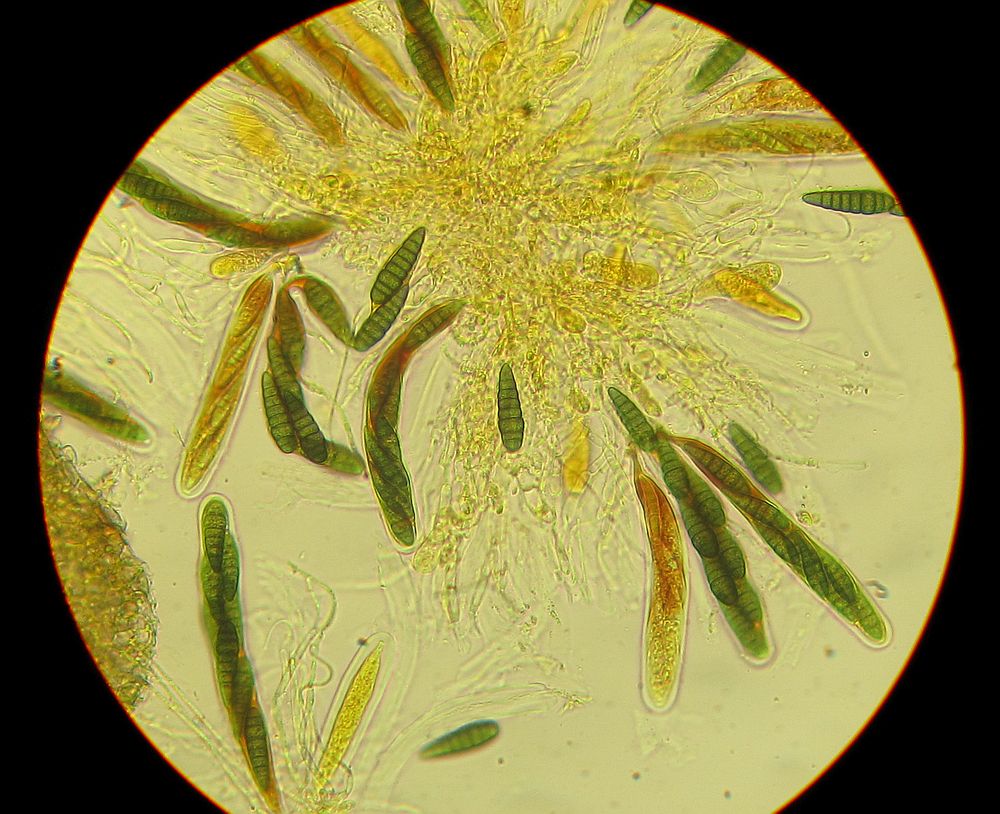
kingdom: Fungi
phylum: Ascomycota
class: Dothideomycetes
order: Pleosporales
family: Leptosphaeriaceae
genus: Leptosphaeria
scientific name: Leptosphaeria
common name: kulkegle
